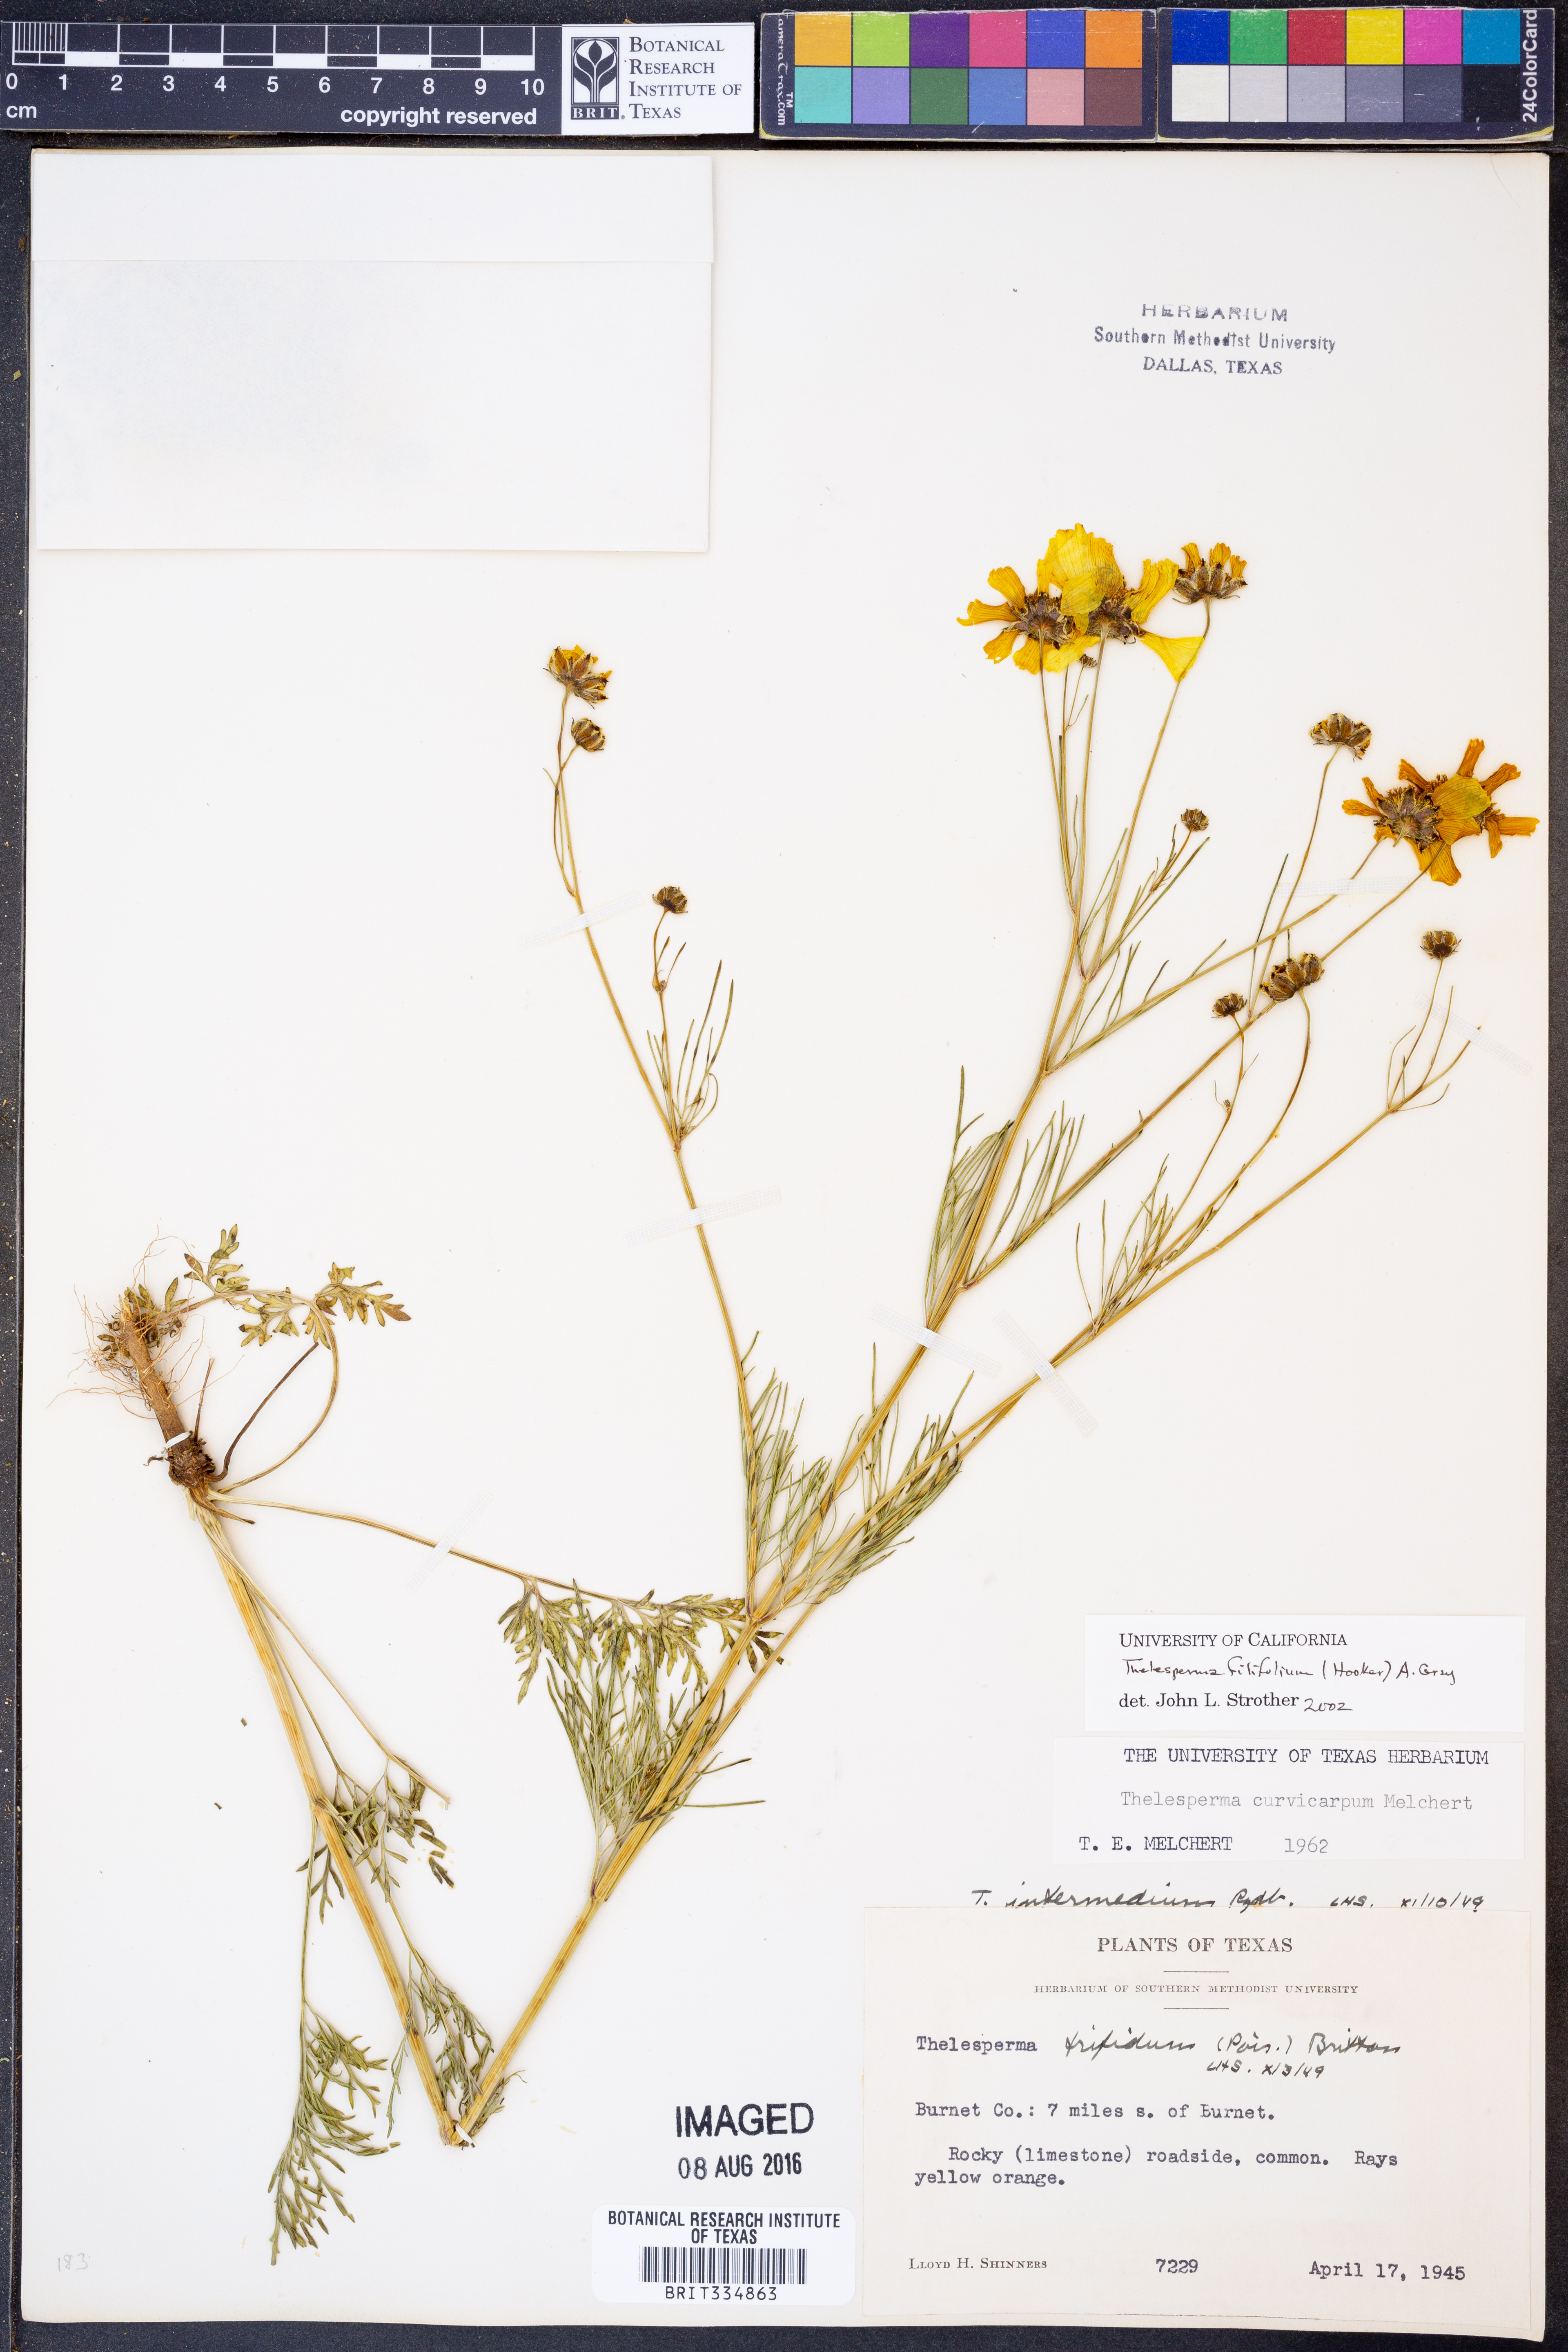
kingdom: Plantae
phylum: Tracheophyta
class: Magnoliopsida
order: Asterales
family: Asteraceae
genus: Thelesperma
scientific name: Thelesperma filifolium
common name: Stiff greenthread
